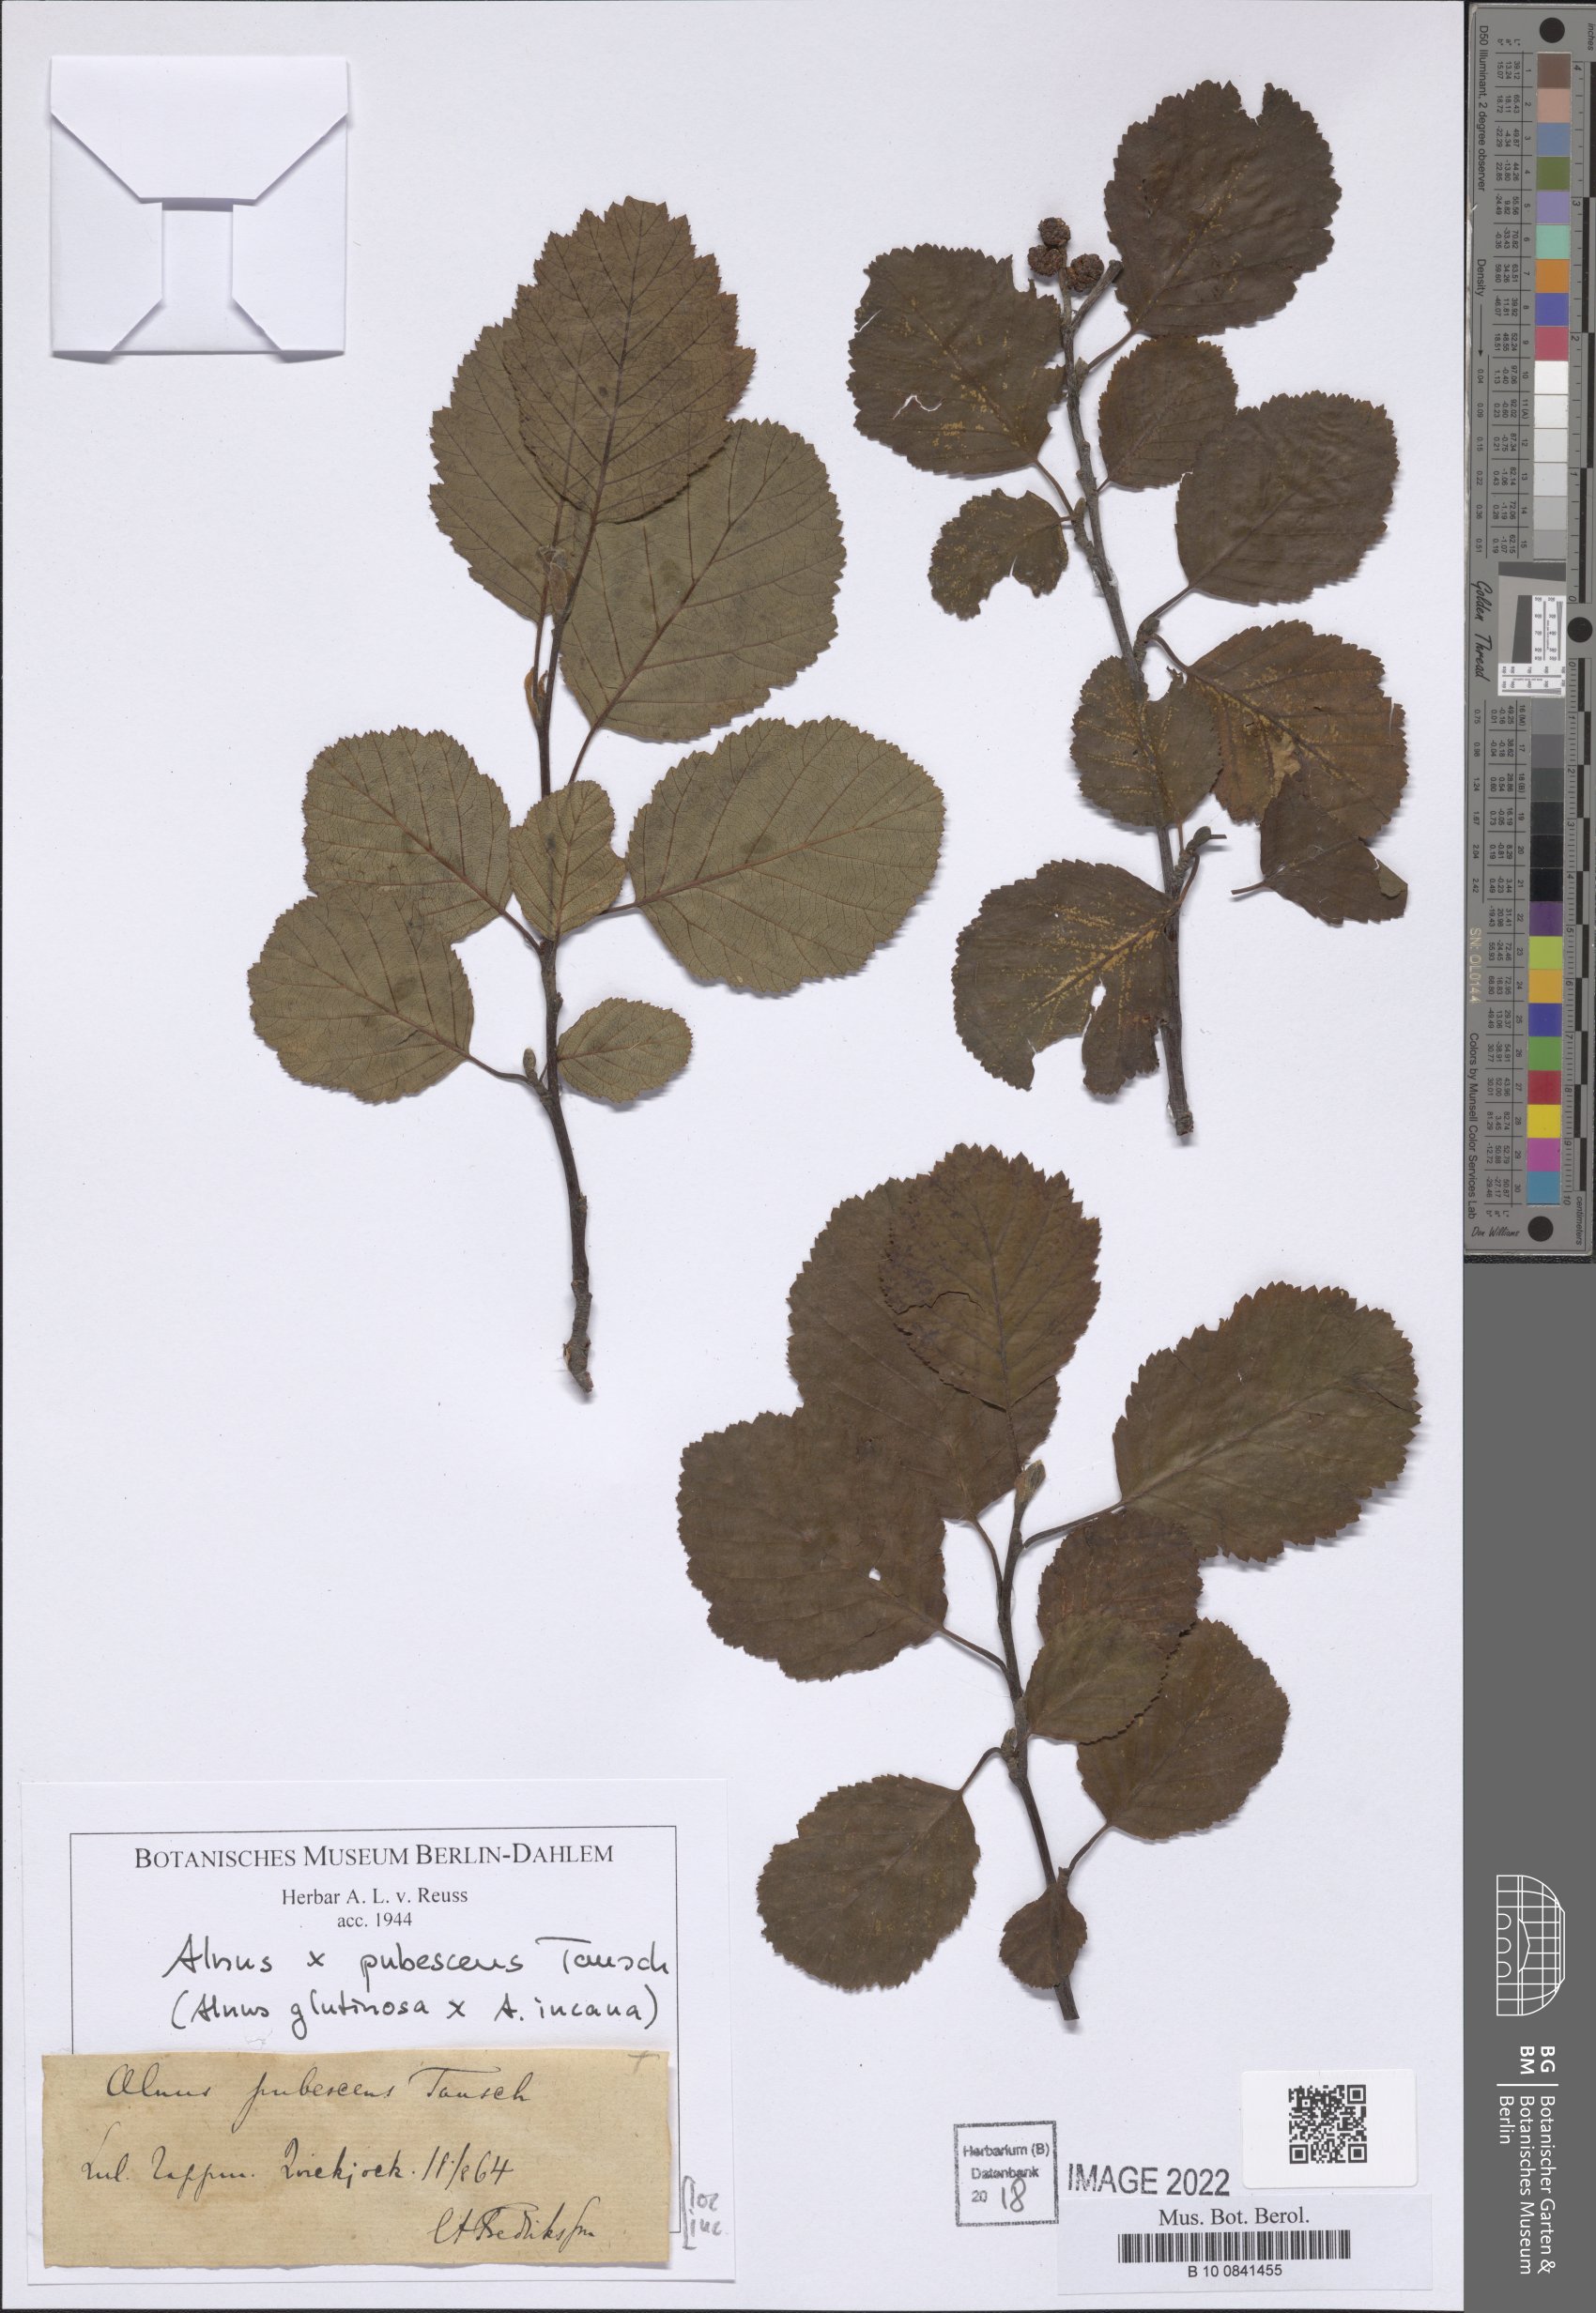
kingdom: Plantae
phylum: Tracheophyta
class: Magnoliopsida
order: Fagales
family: Betulaceae
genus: Alnus
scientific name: Alnus pubescens
